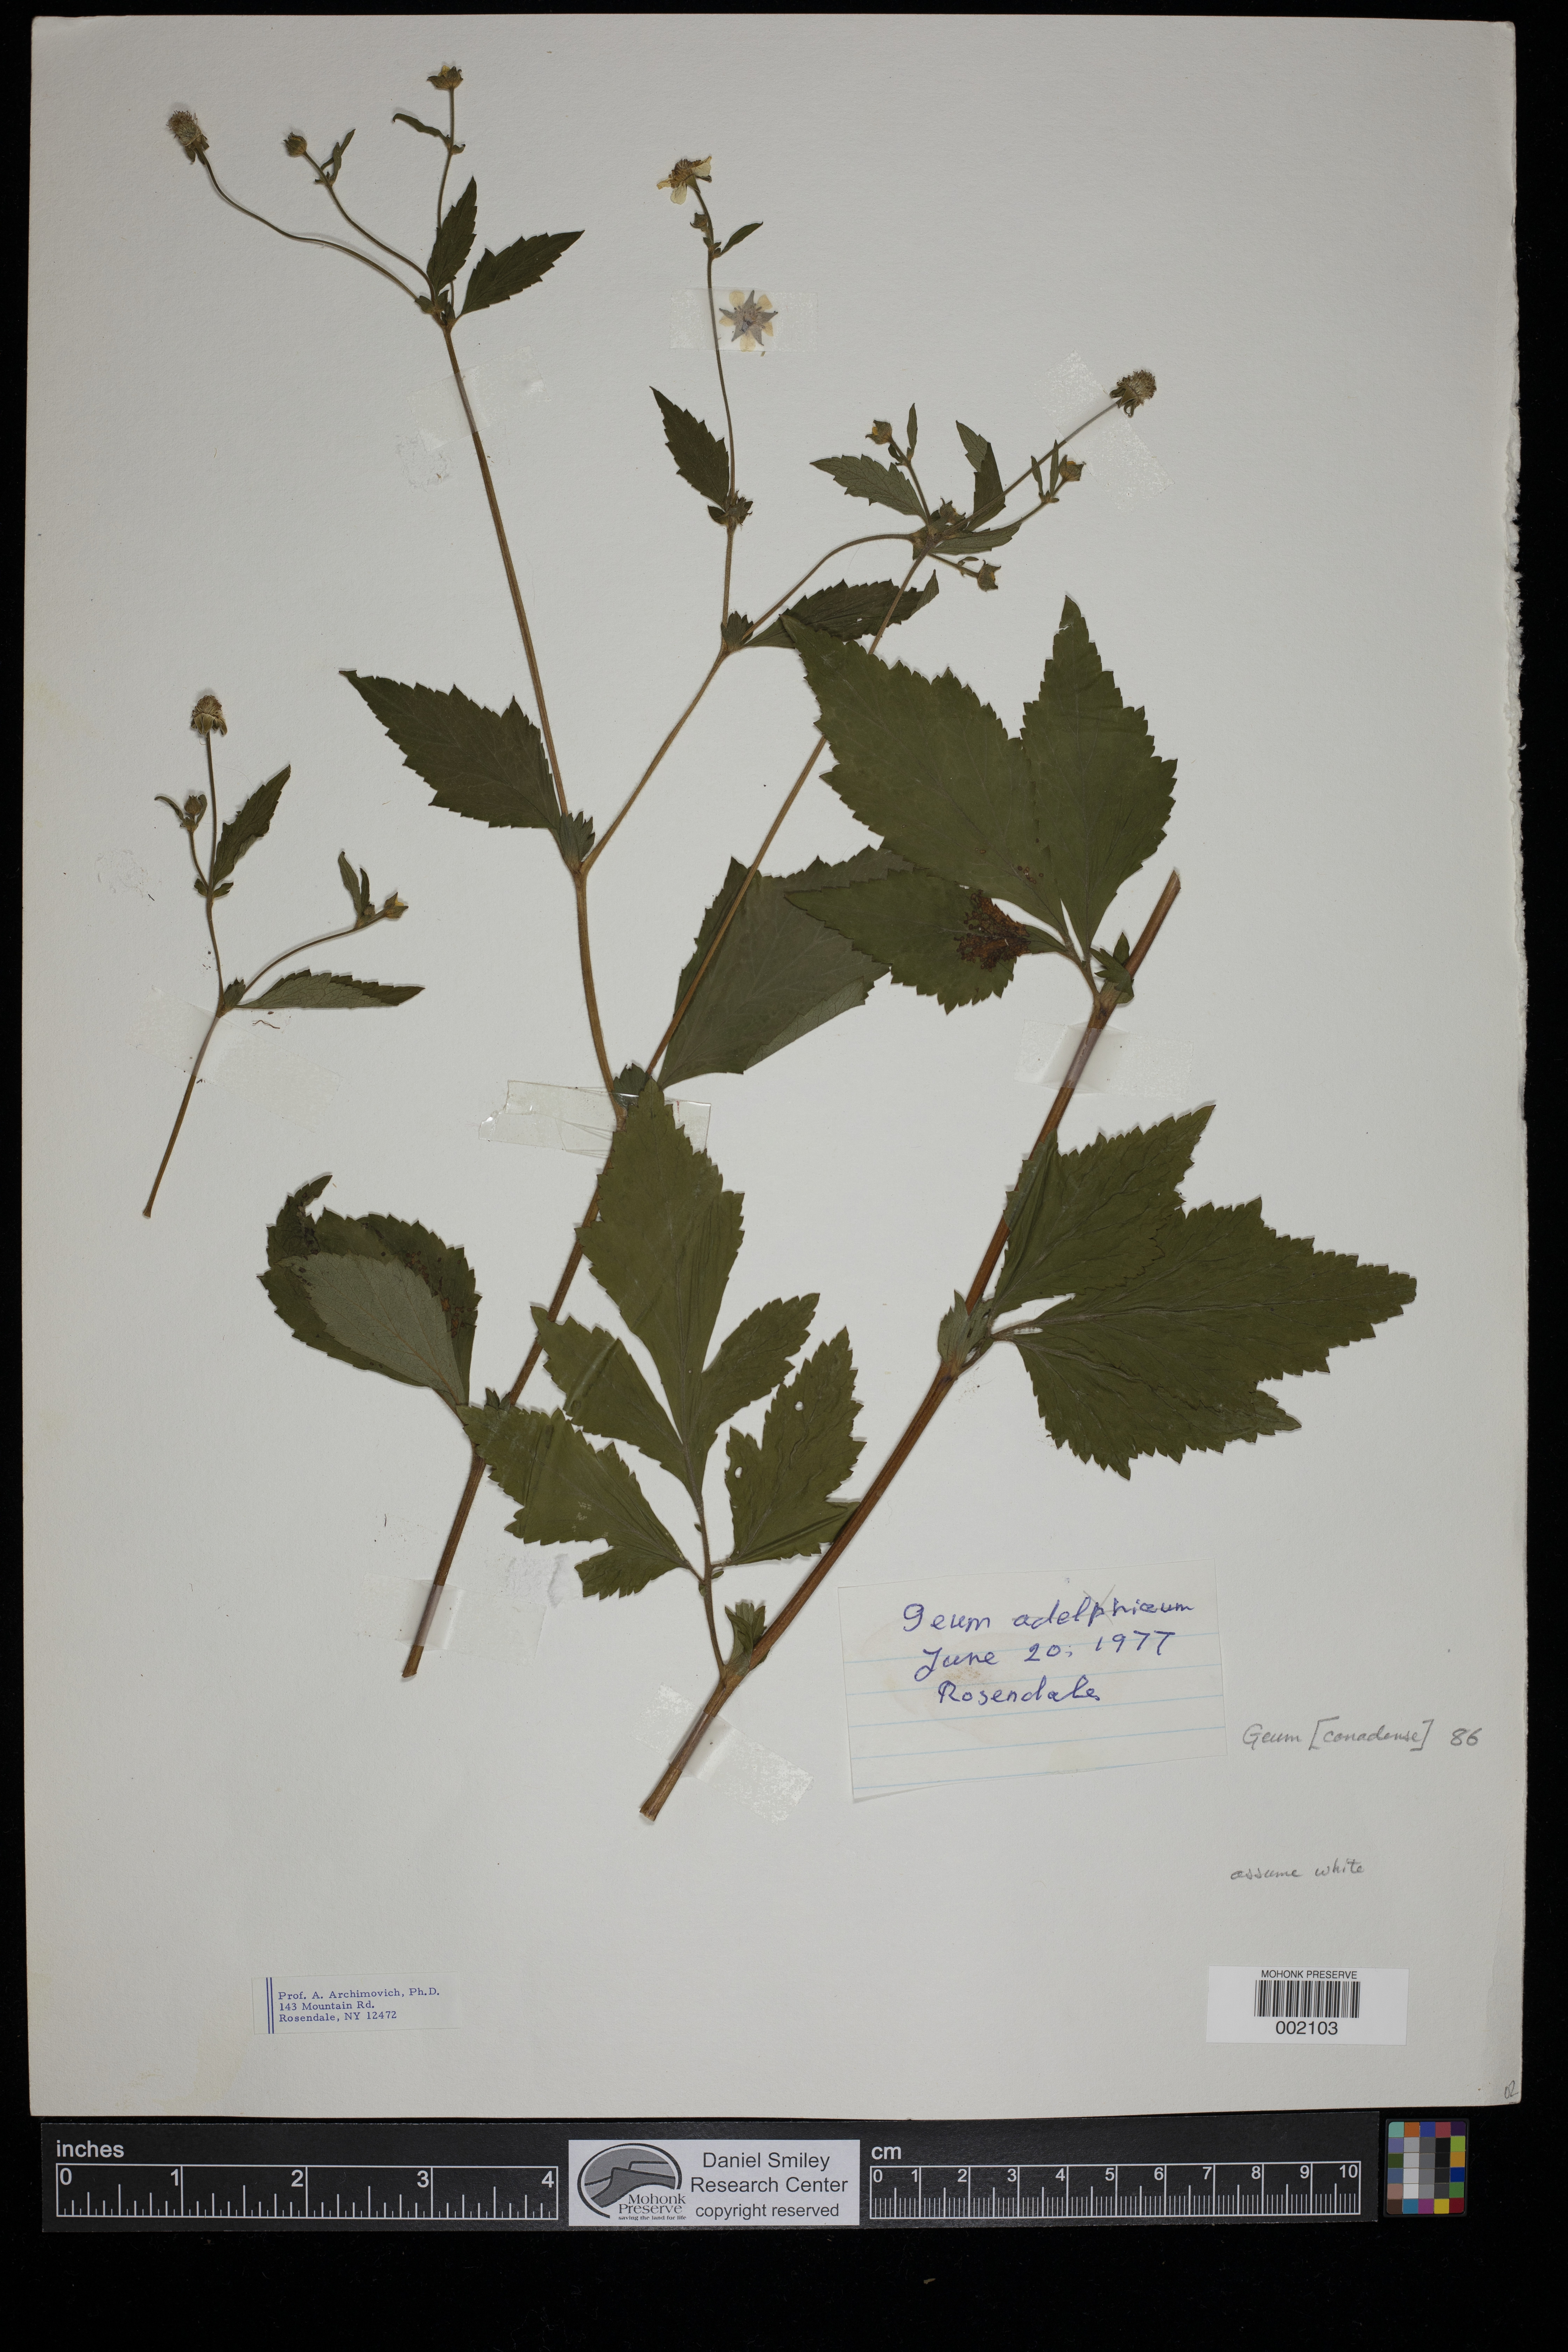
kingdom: Plantae
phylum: Tracheophyta
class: Magnoliopsida
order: Rosales
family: Rosaceae
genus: Geum
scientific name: Geum canadense
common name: White avens
